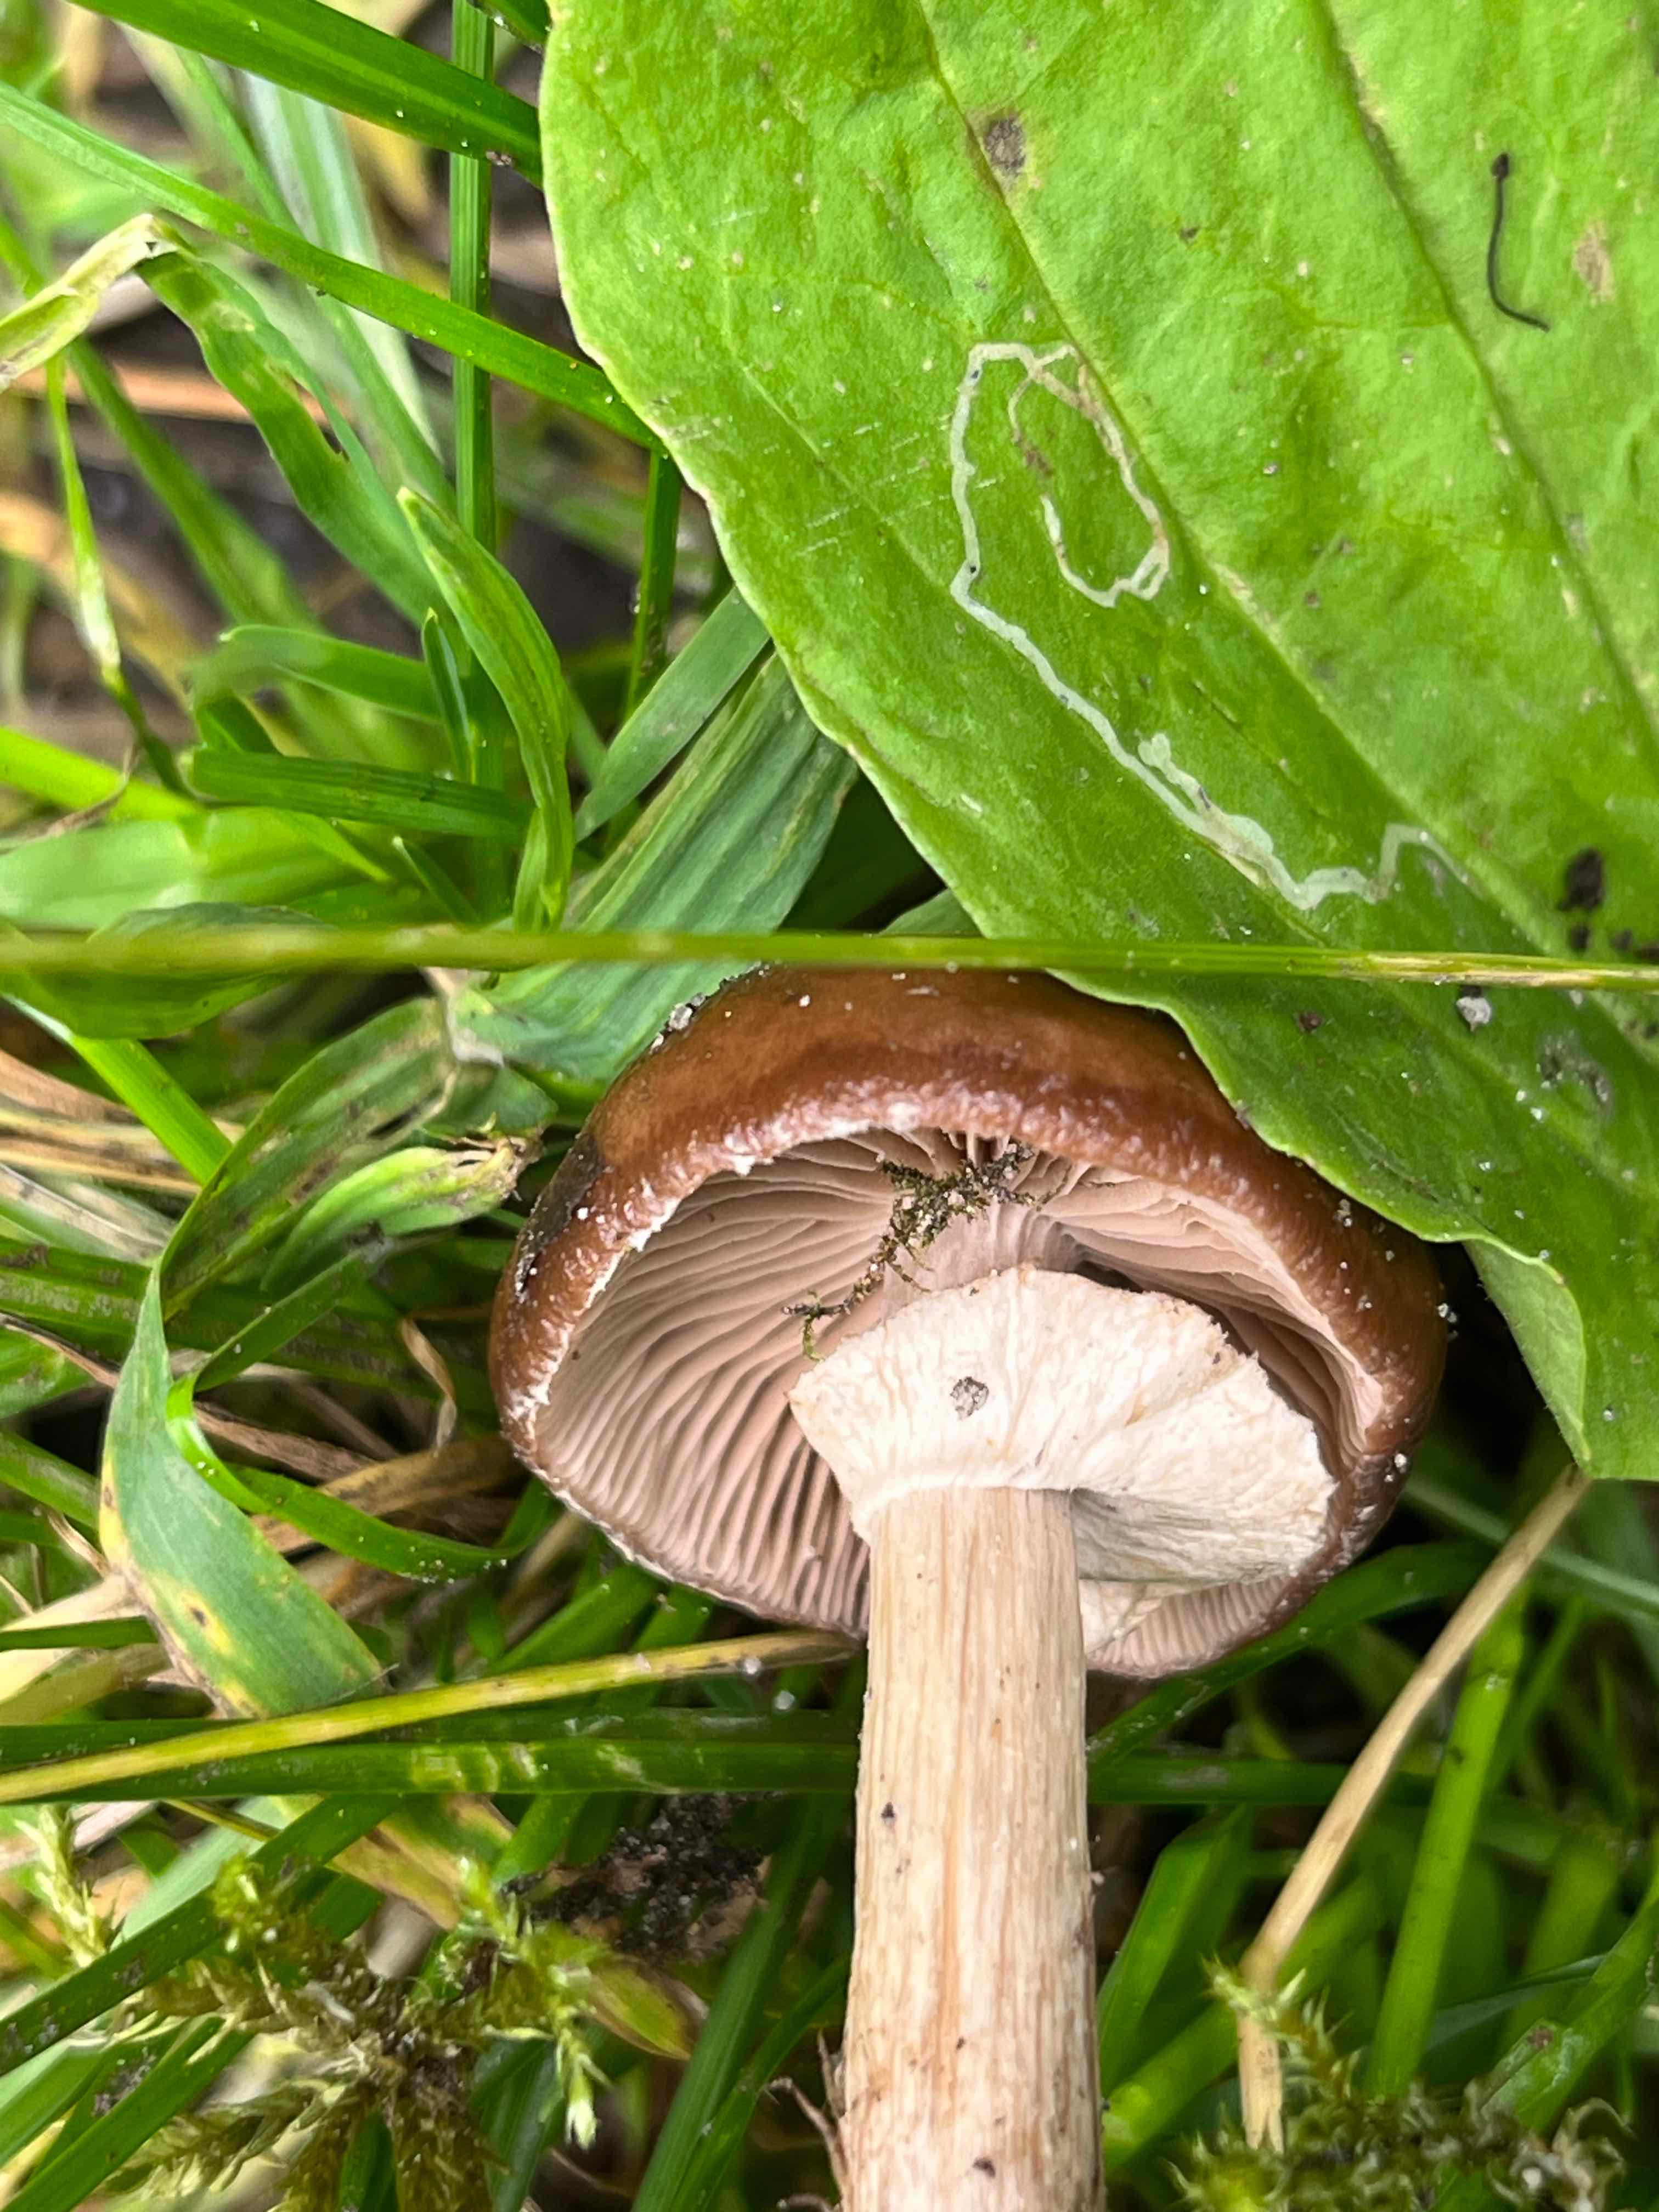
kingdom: Fungi
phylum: Basidiomycota
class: Agaricomycetes
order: Agaricales
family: Tubariaceae
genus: Cyclocybe
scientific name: Cyclocybe erebia
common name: mørk agerhat
